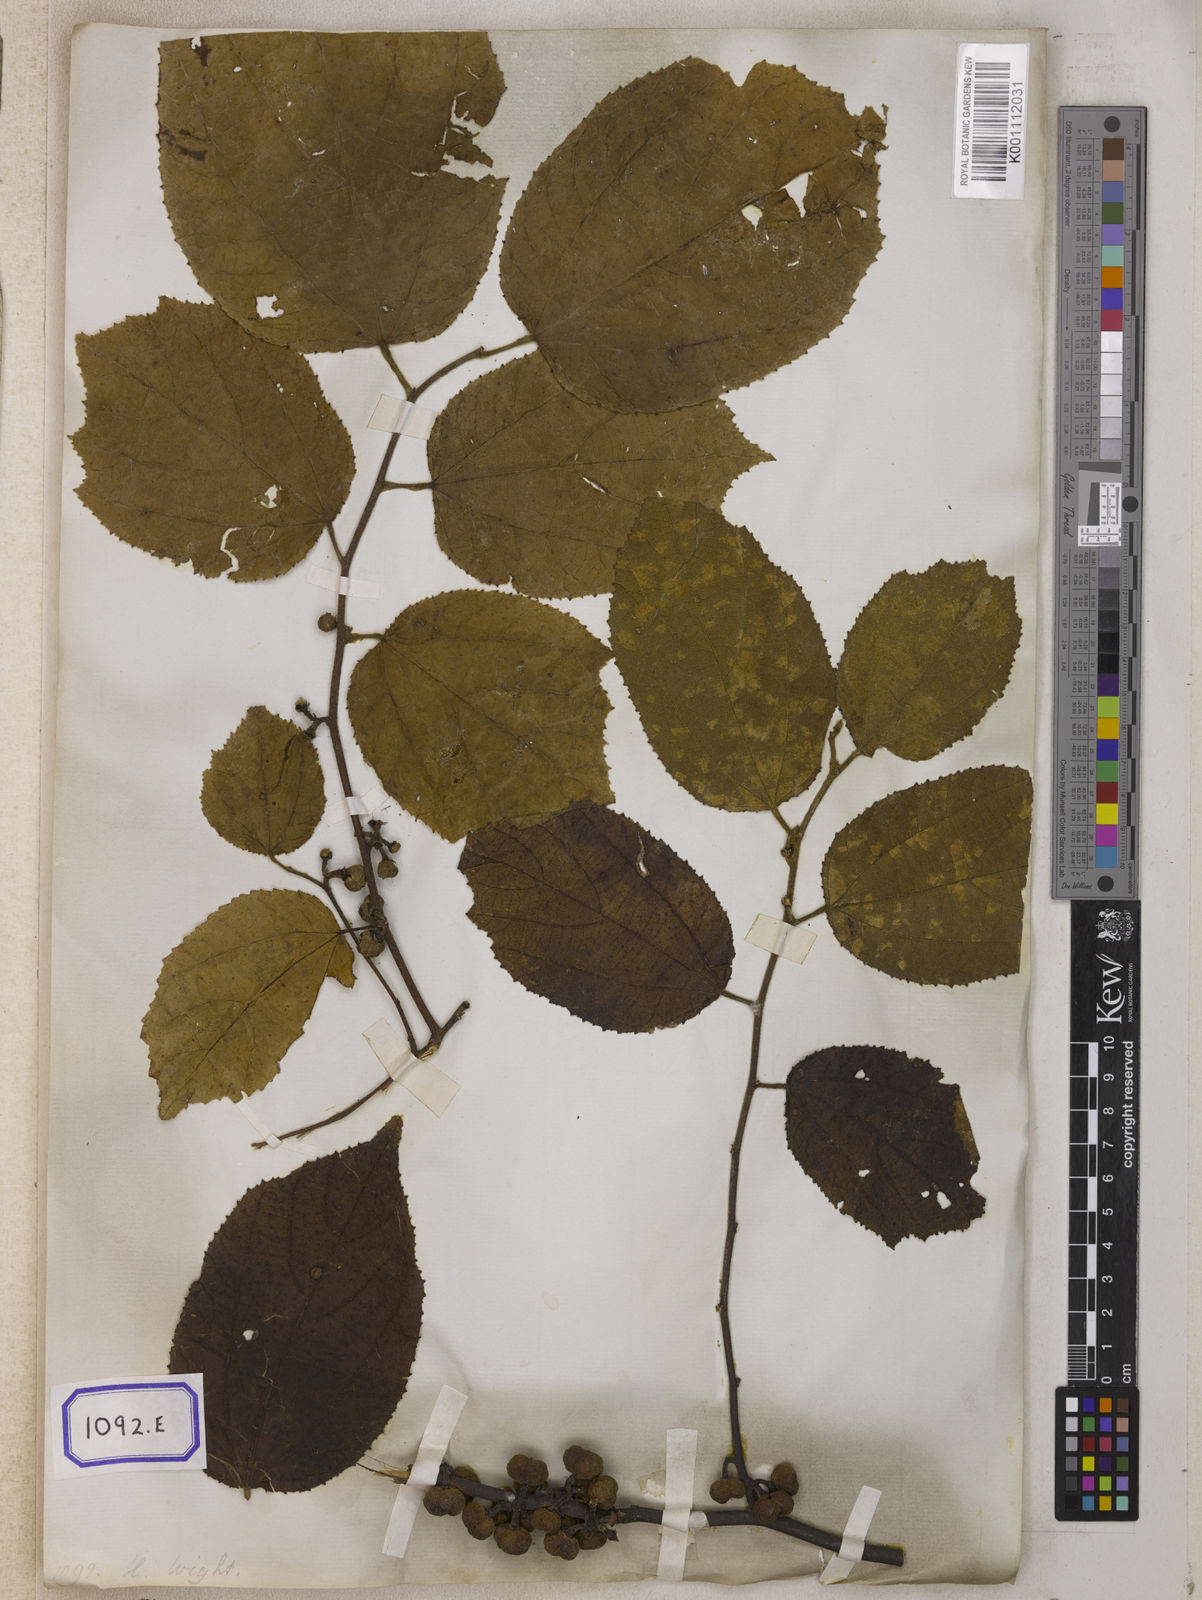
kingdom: Plantae
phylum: Tracheophyta
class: Magnoliopsida
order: Malvales
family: Malvaceae
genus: Grewia
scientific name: Grewia abutilifolia
